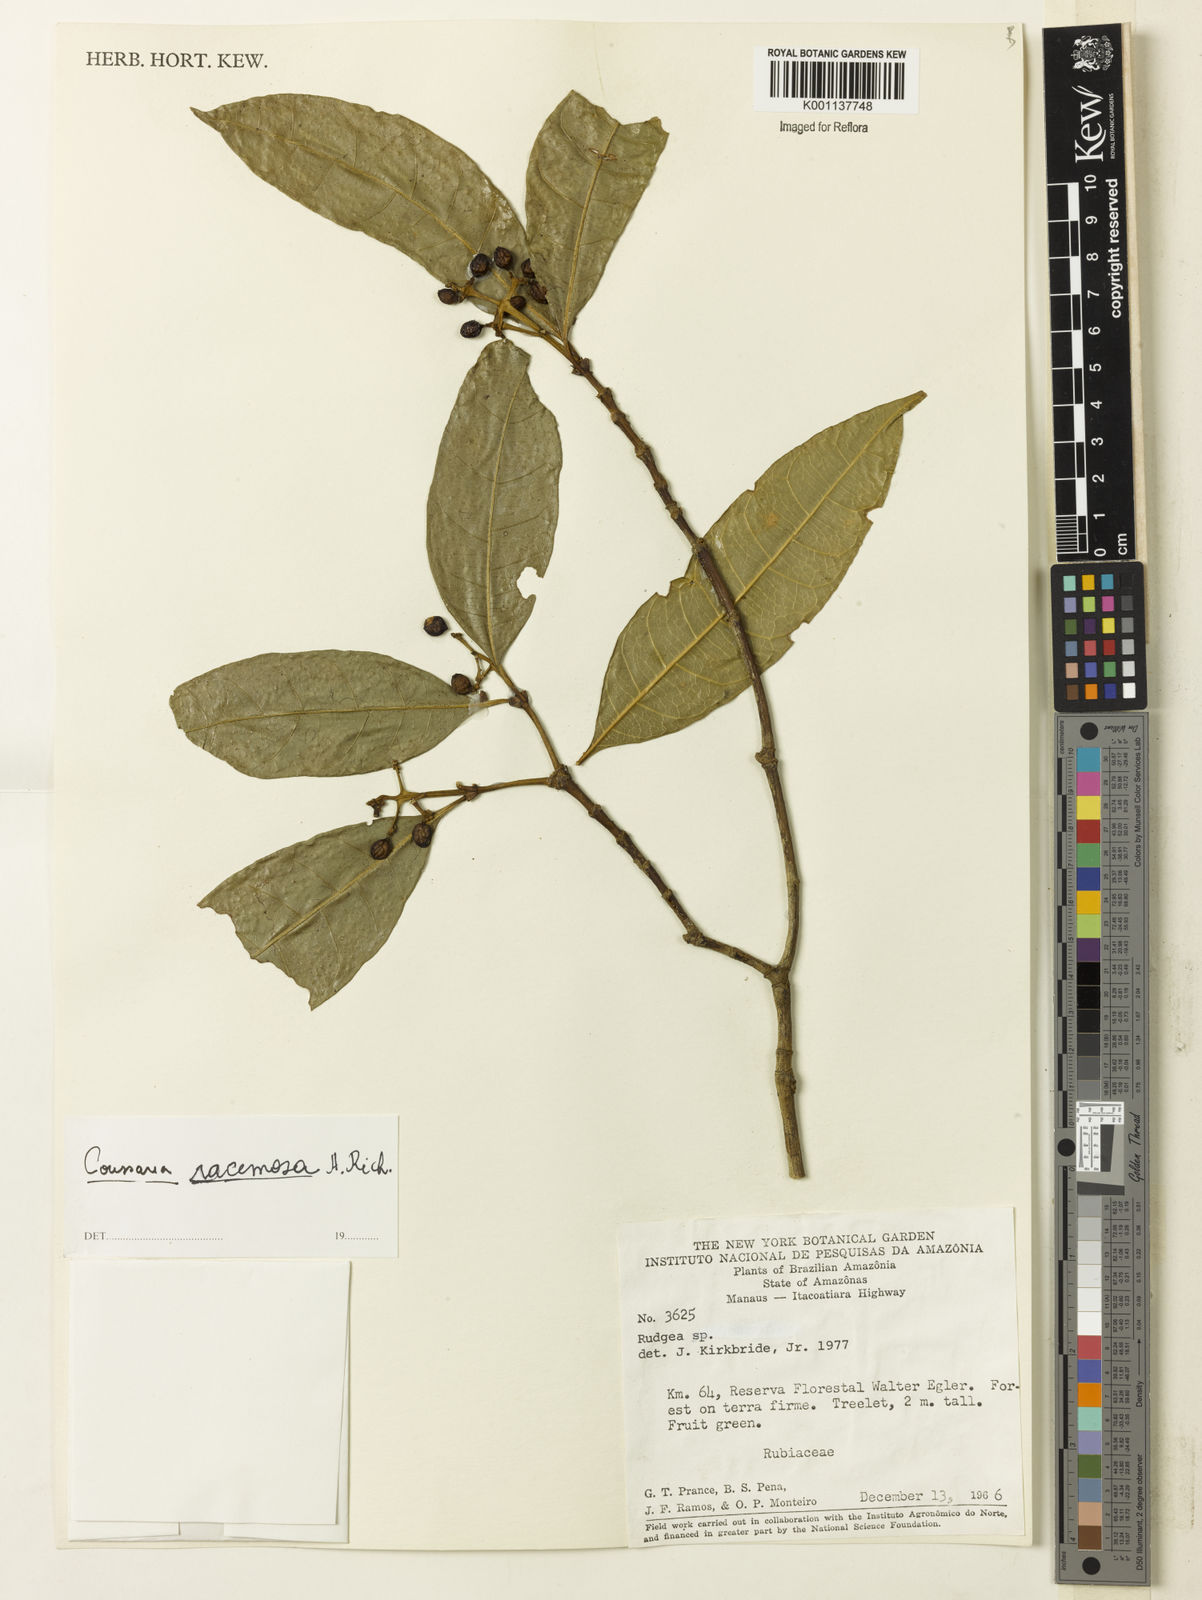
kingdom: Plantae
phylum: Tracheophyta
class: Magnoliopsida
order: Gentianales
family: Rubiaceae
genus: Coussarea
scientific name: Coussarea
